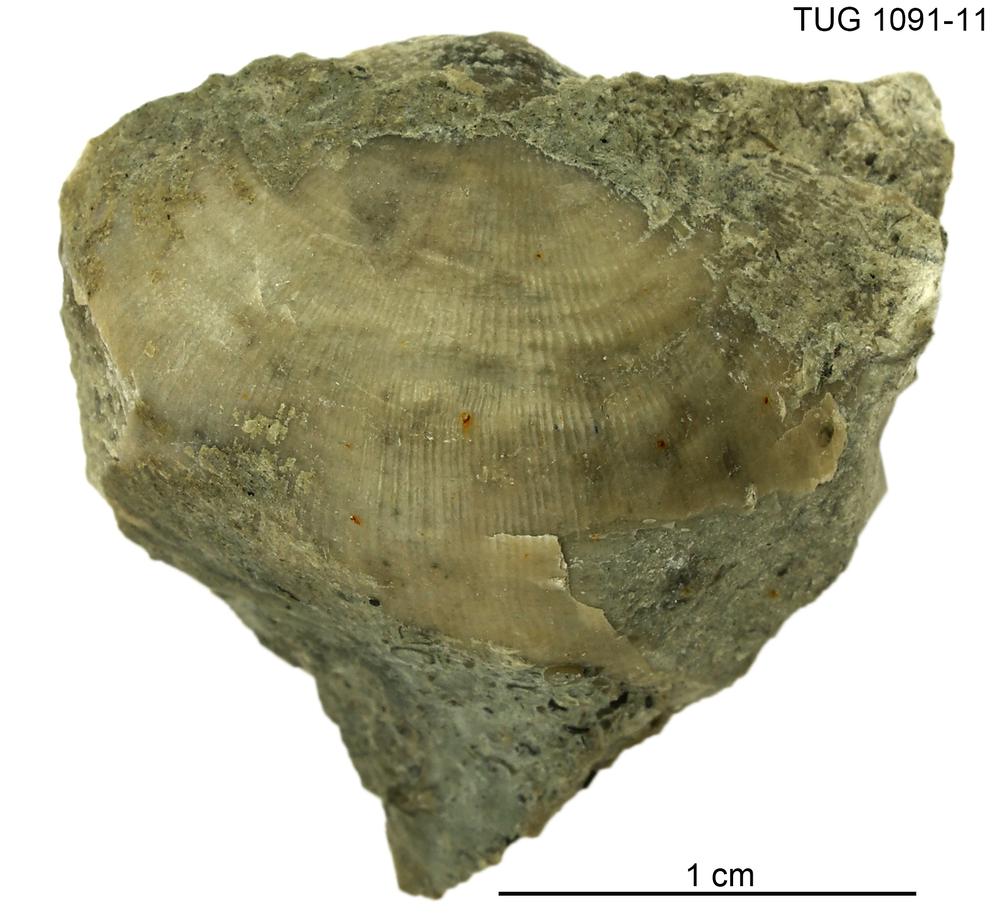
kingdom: Animalia
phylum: Brachiopoda
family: Strophomenidae
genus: Leptaena
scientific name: Leptaena
